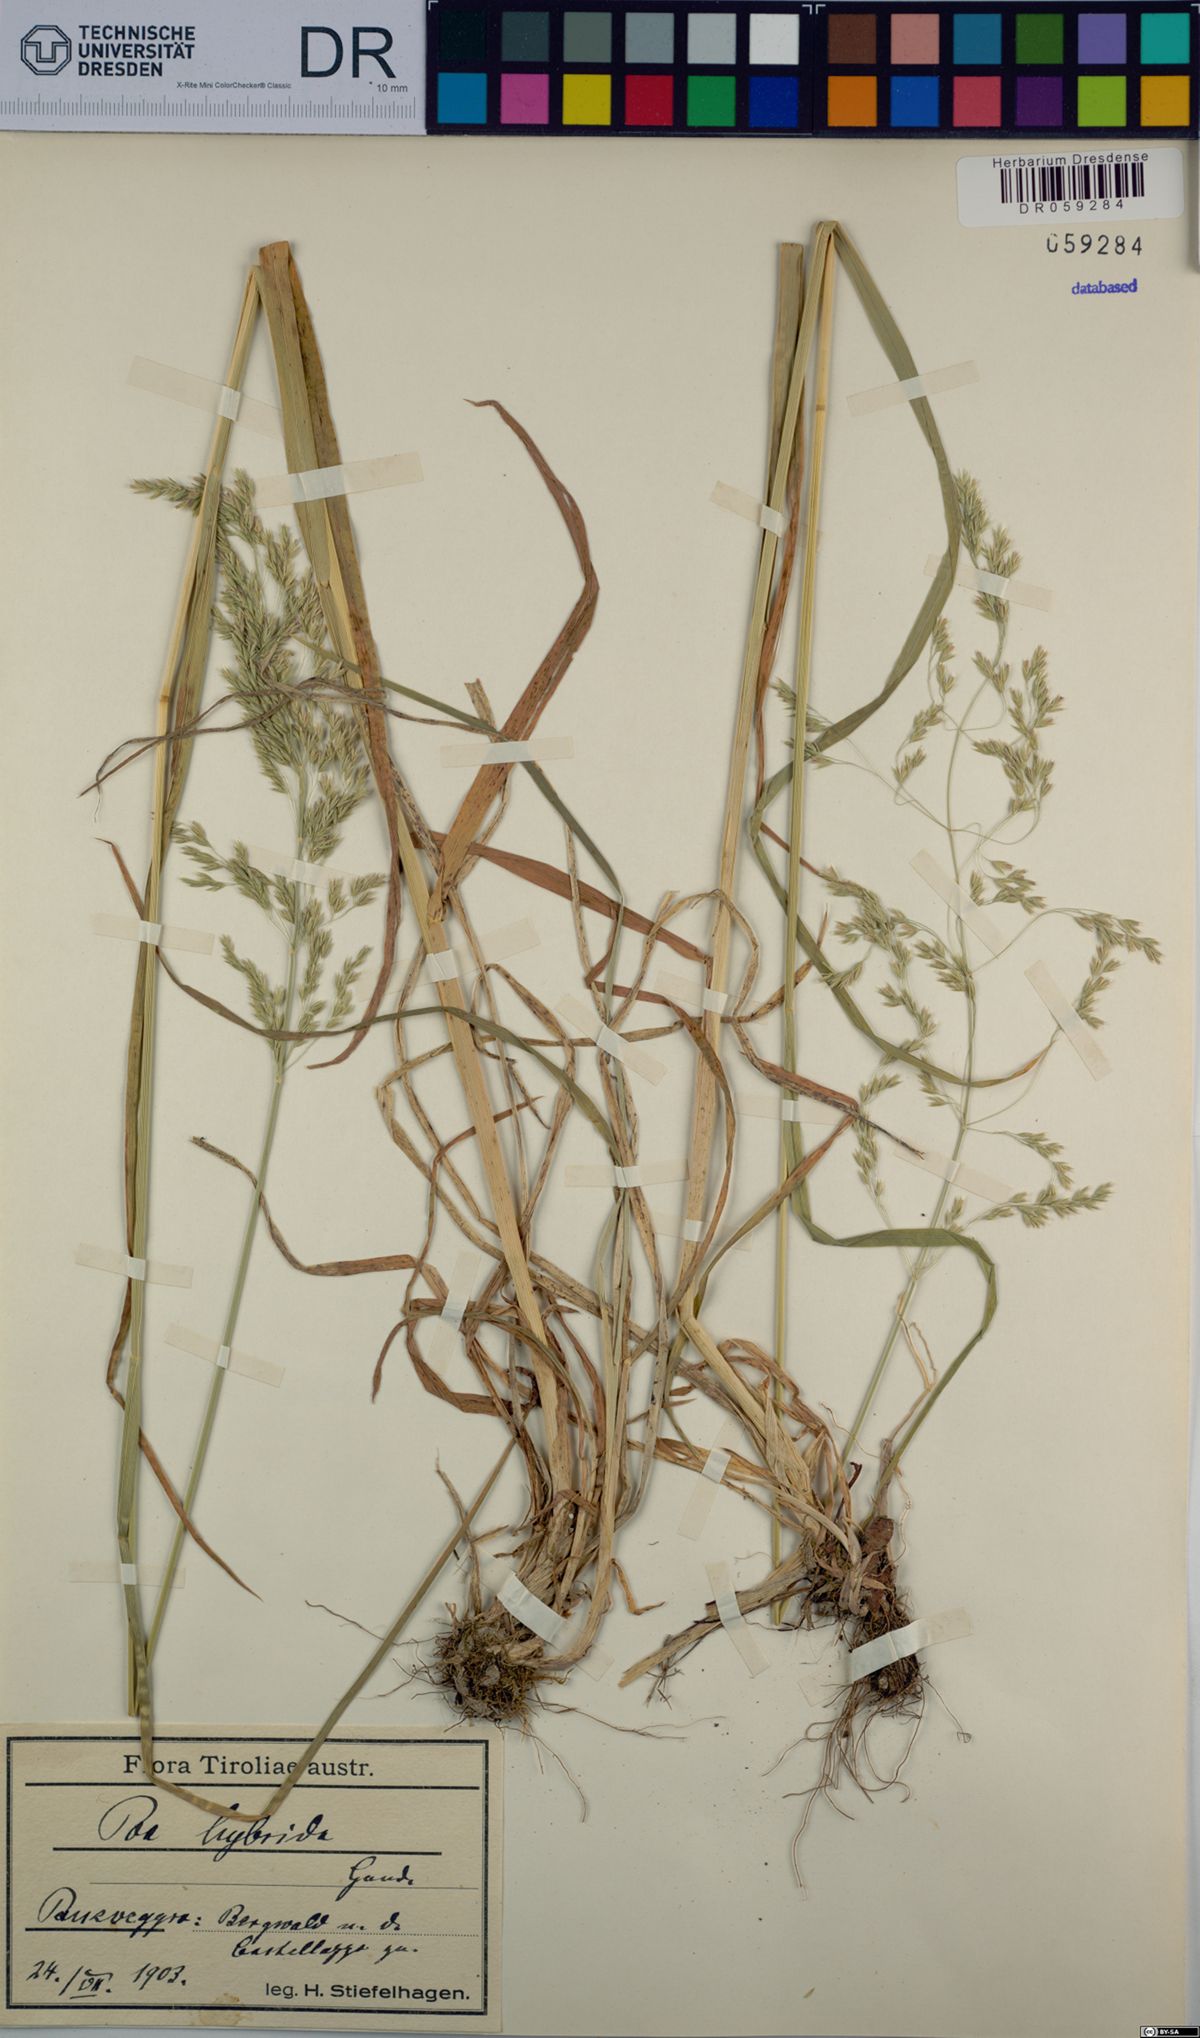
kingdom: Plantae
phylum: Tracheophyta
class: Liliopsida
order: Poales
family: Poaceae
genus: Poa
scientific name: Poa hybrida
